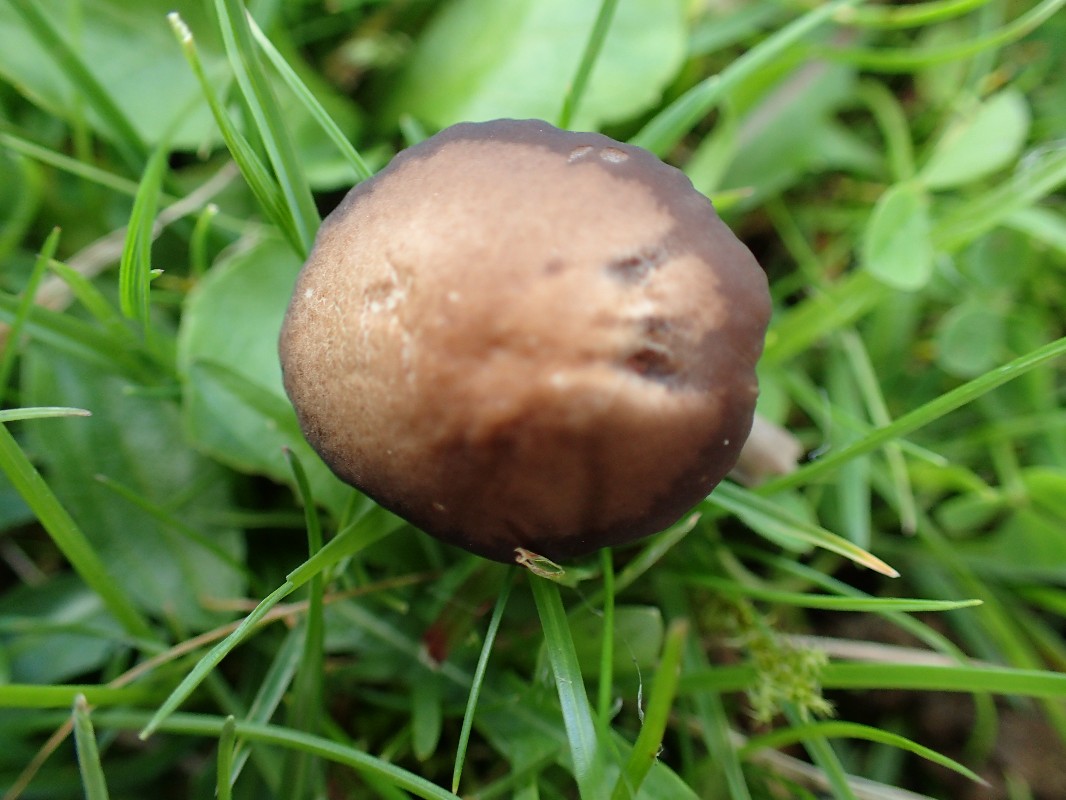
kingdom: Fungi
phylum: Basidiomycota
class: Agaricomycetes
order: Agaricales
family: Tricholomataceae
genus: Dermoloma
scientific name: Dermoloma pseudocuneifolium
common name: mark-nonnehat
